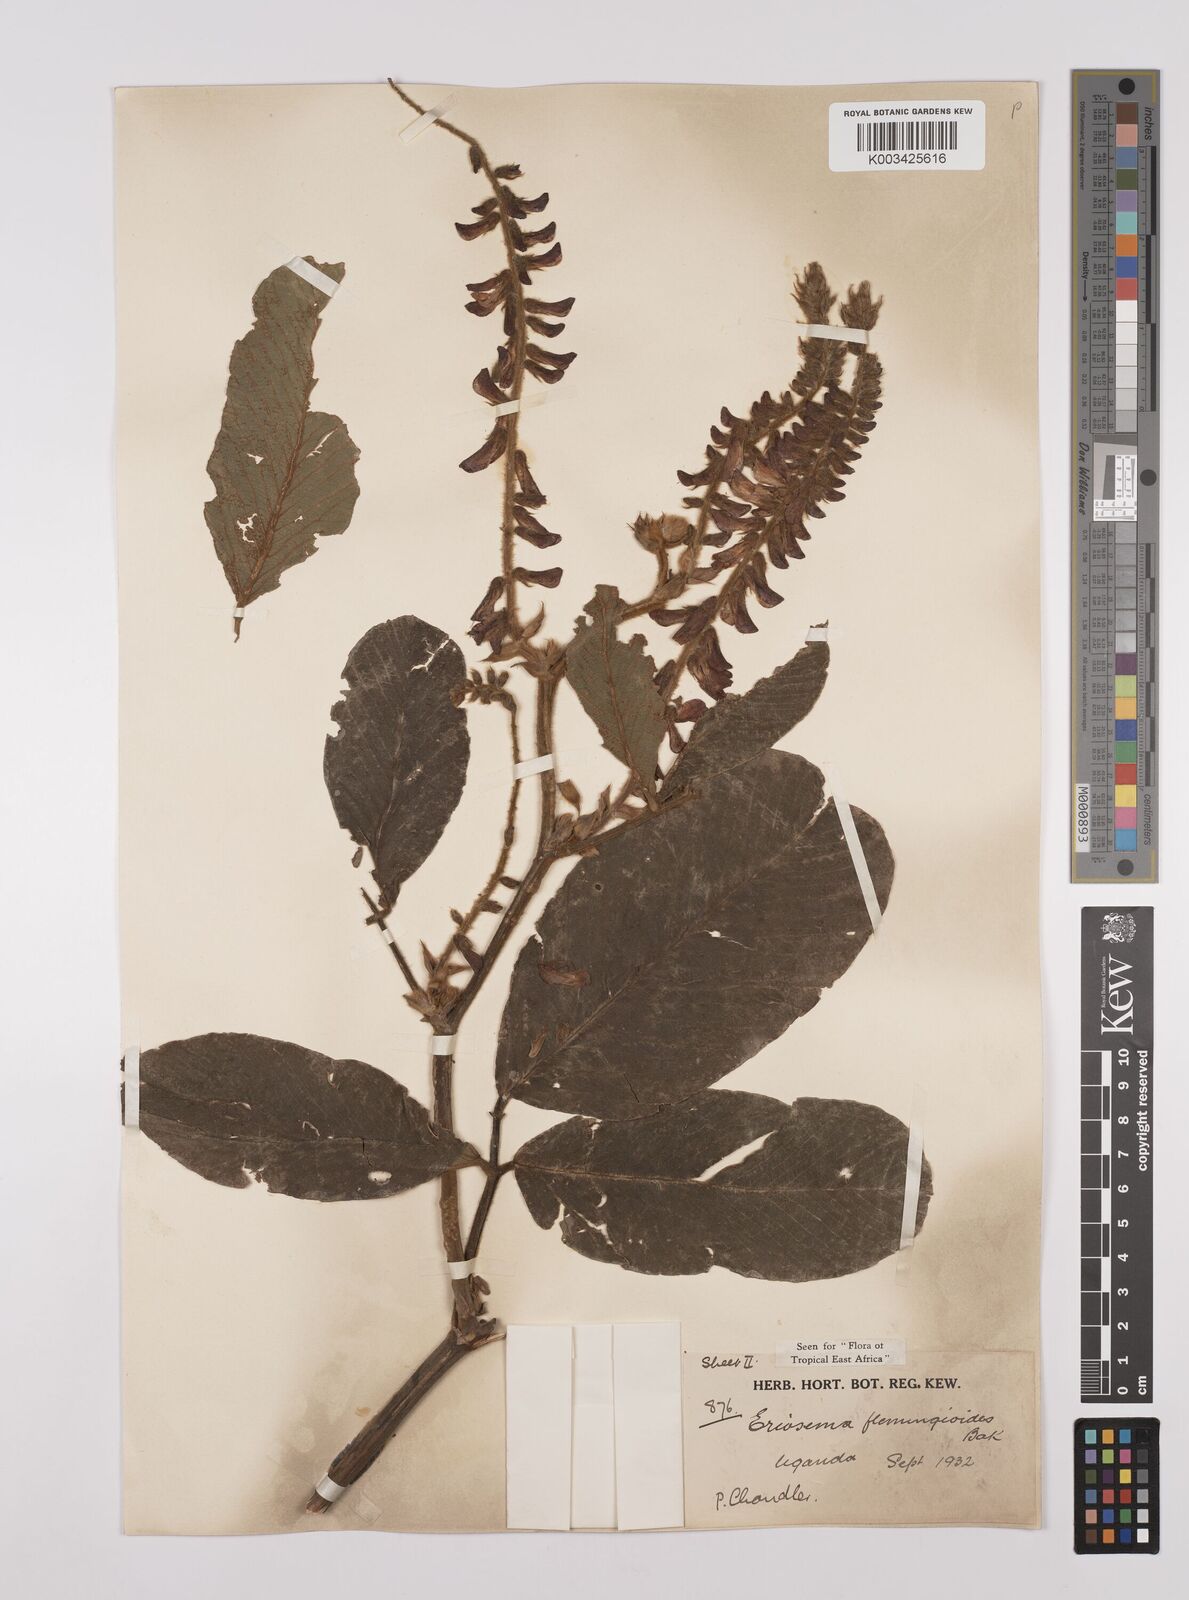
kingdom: Plantae
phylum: Tracheophyta
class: Magnoliopsida
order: Fabales
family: Fabaceae
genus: Eriosema
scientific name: Eriosema flemingioides
